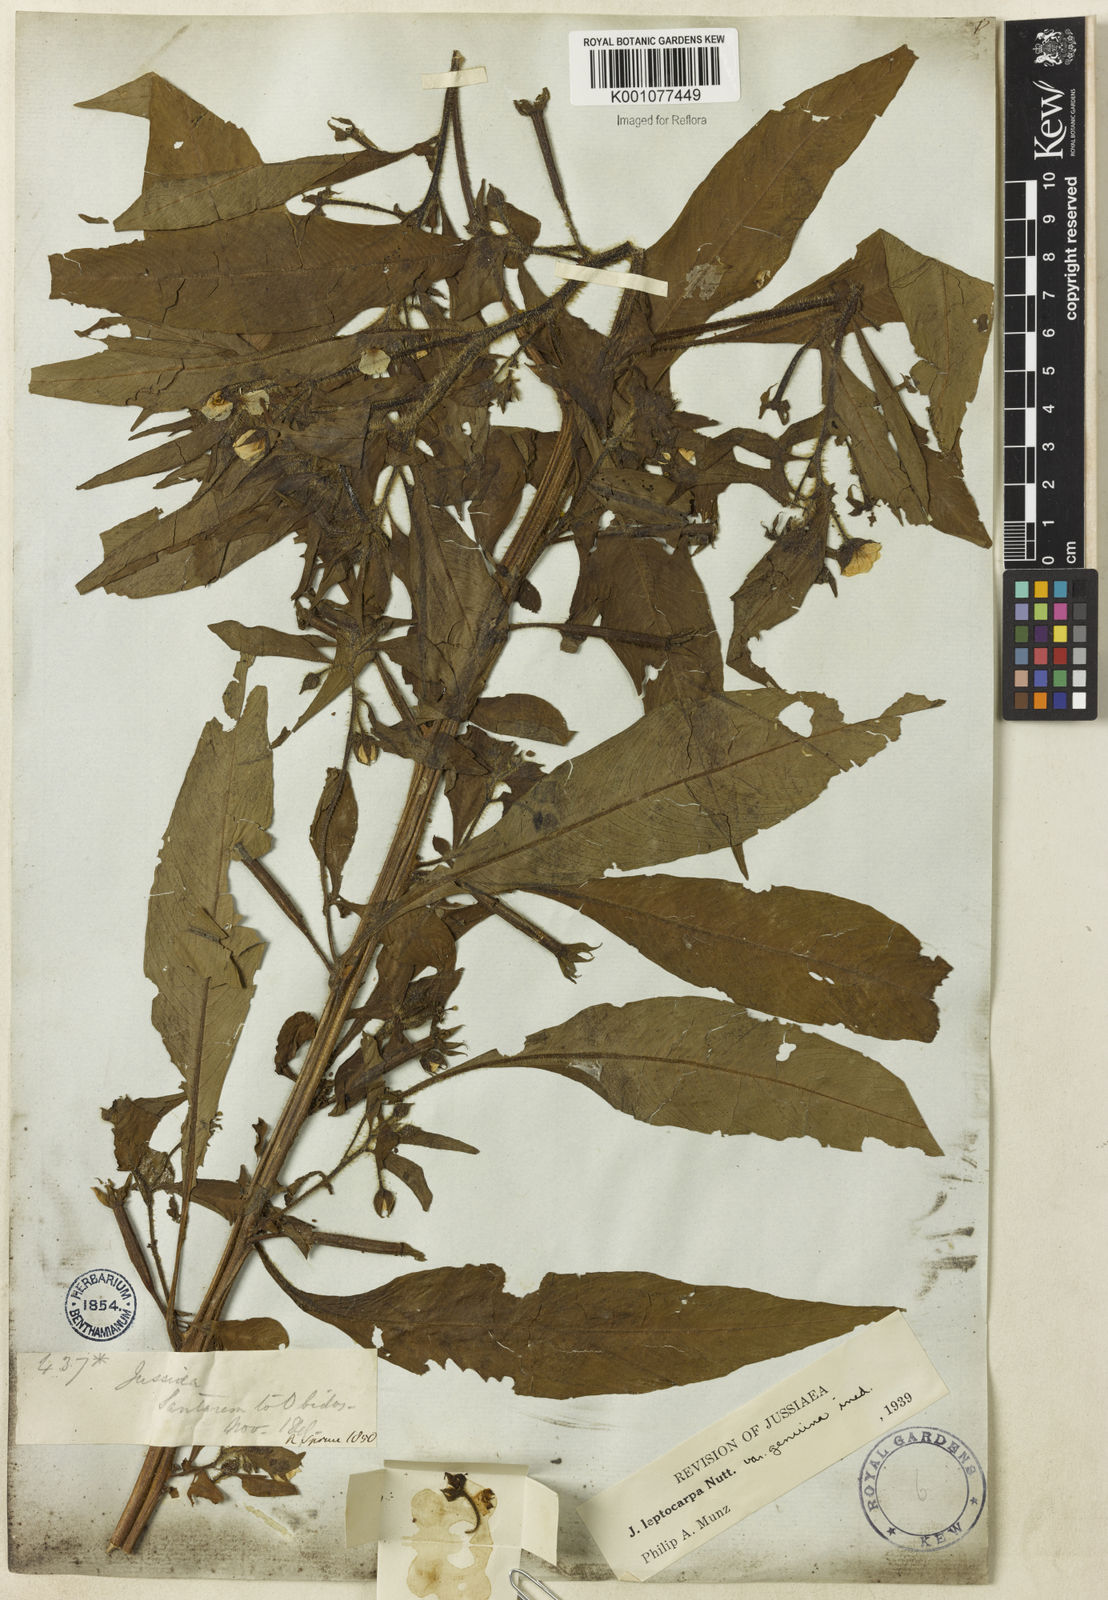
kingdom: Plantae
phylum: Tracheophyta
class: Magnoliopsida
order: Myrtales
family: Onagraceae
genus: Ludwigia
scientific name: Ludwigia leptocarpa
